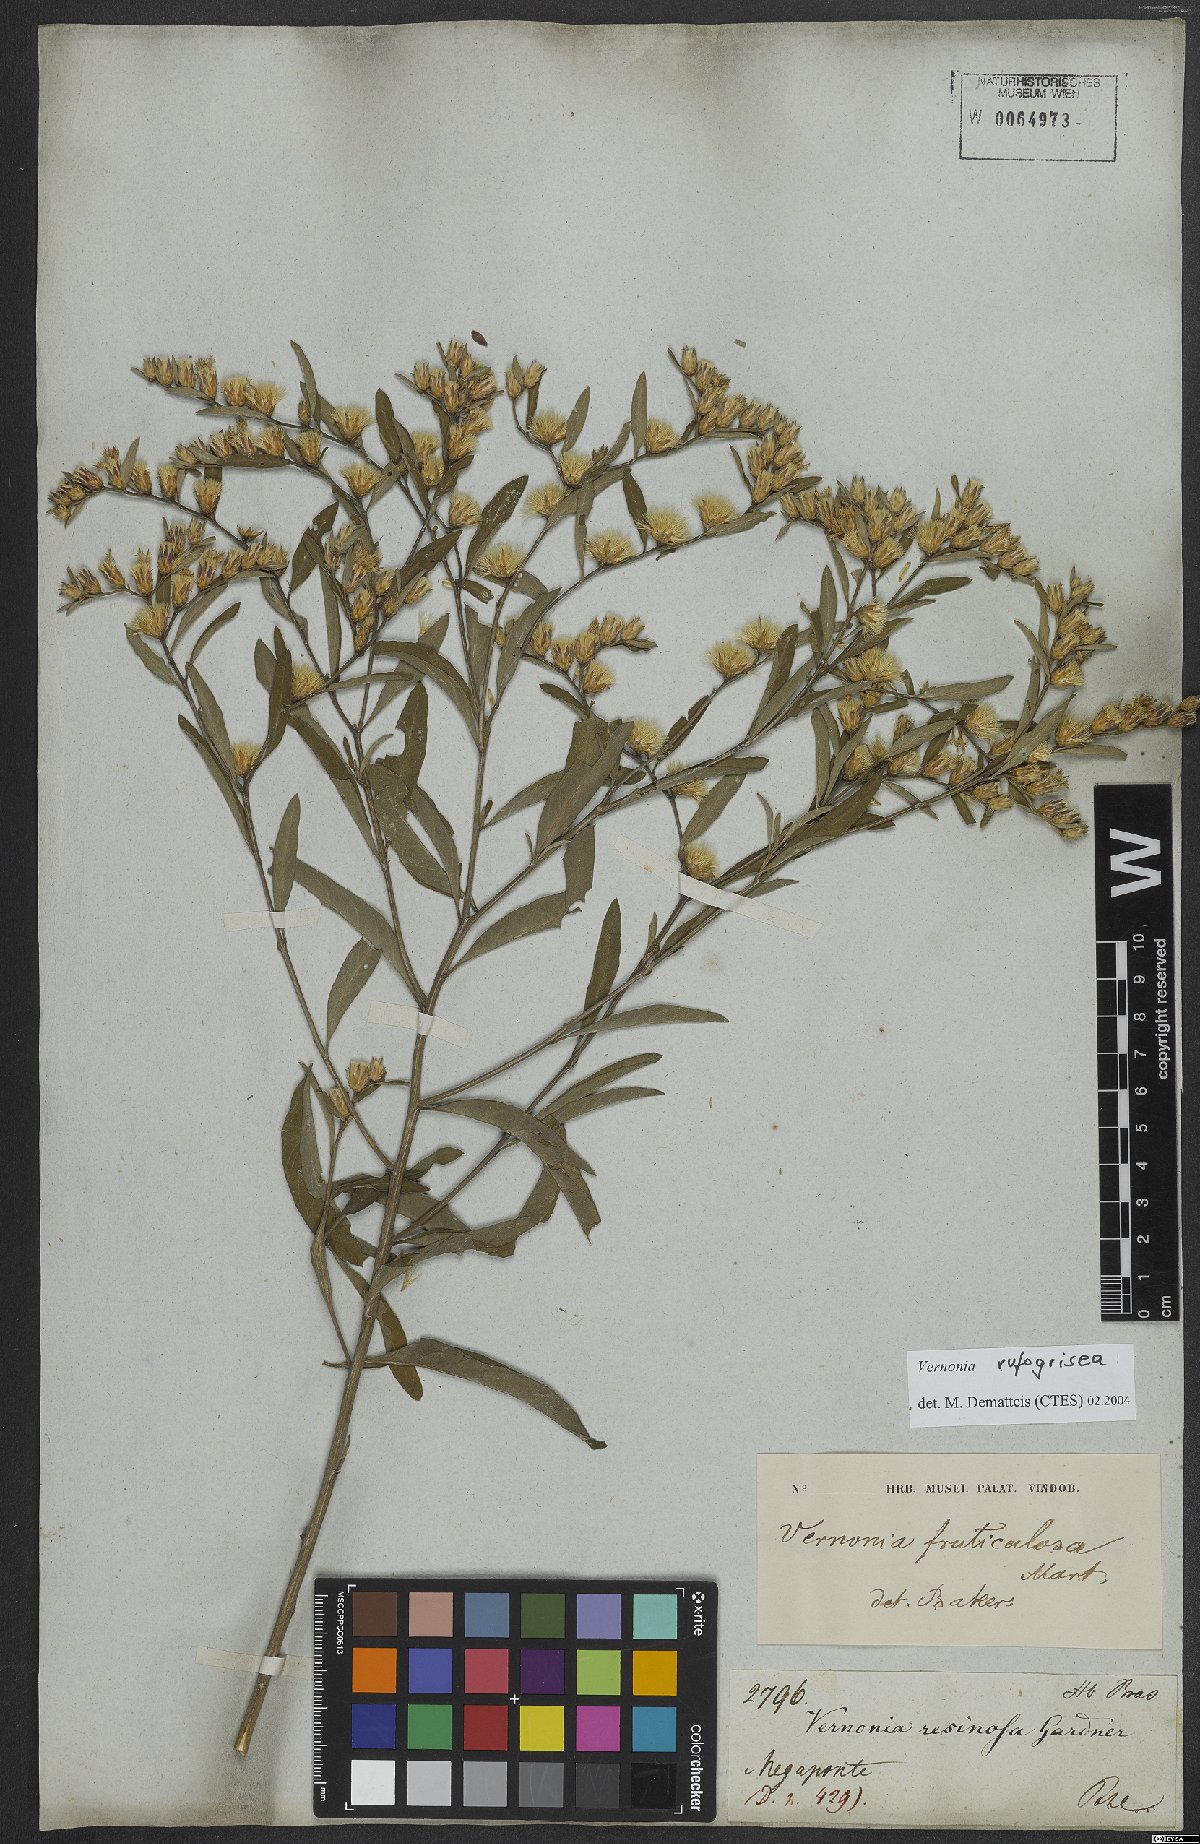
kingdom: Plantae
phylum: Tracheophyta
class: Magnoliopsida
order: Asterales
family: Asteraceae
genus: Lepidaploa
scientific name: Lepidaploa rufogrisea
